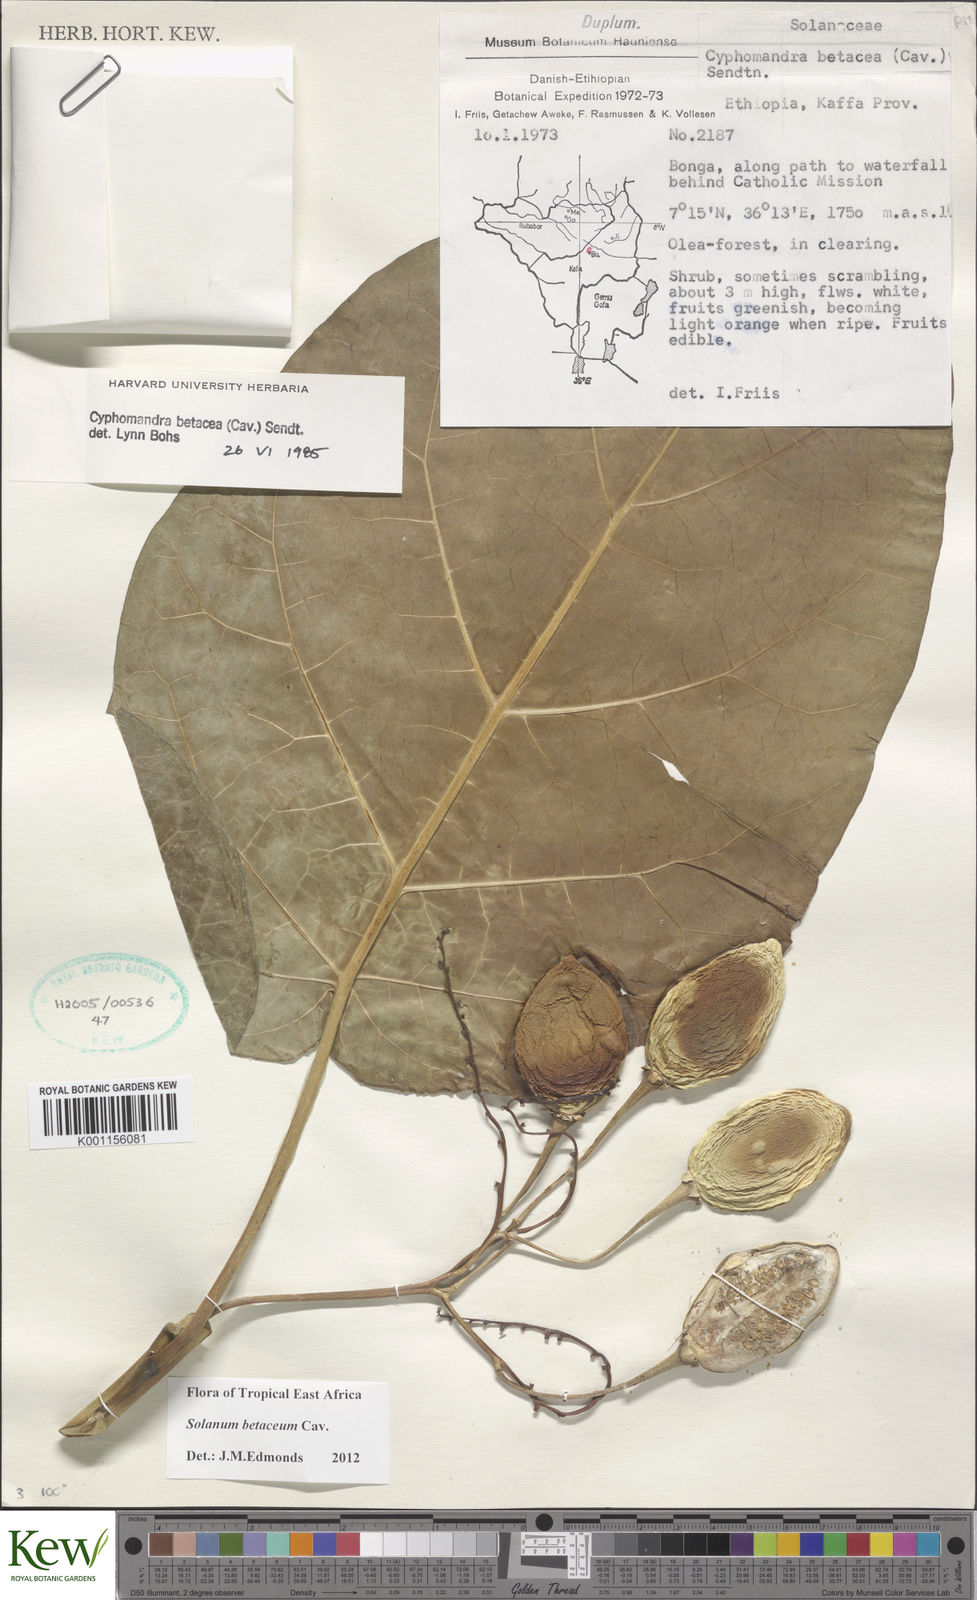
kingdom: Plantae
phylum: Tracheophyta
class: Magnoliopsida
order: Solanales
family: Solanaceae
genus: Solanum
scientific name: Solanum betaceum
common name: Tamarillo
